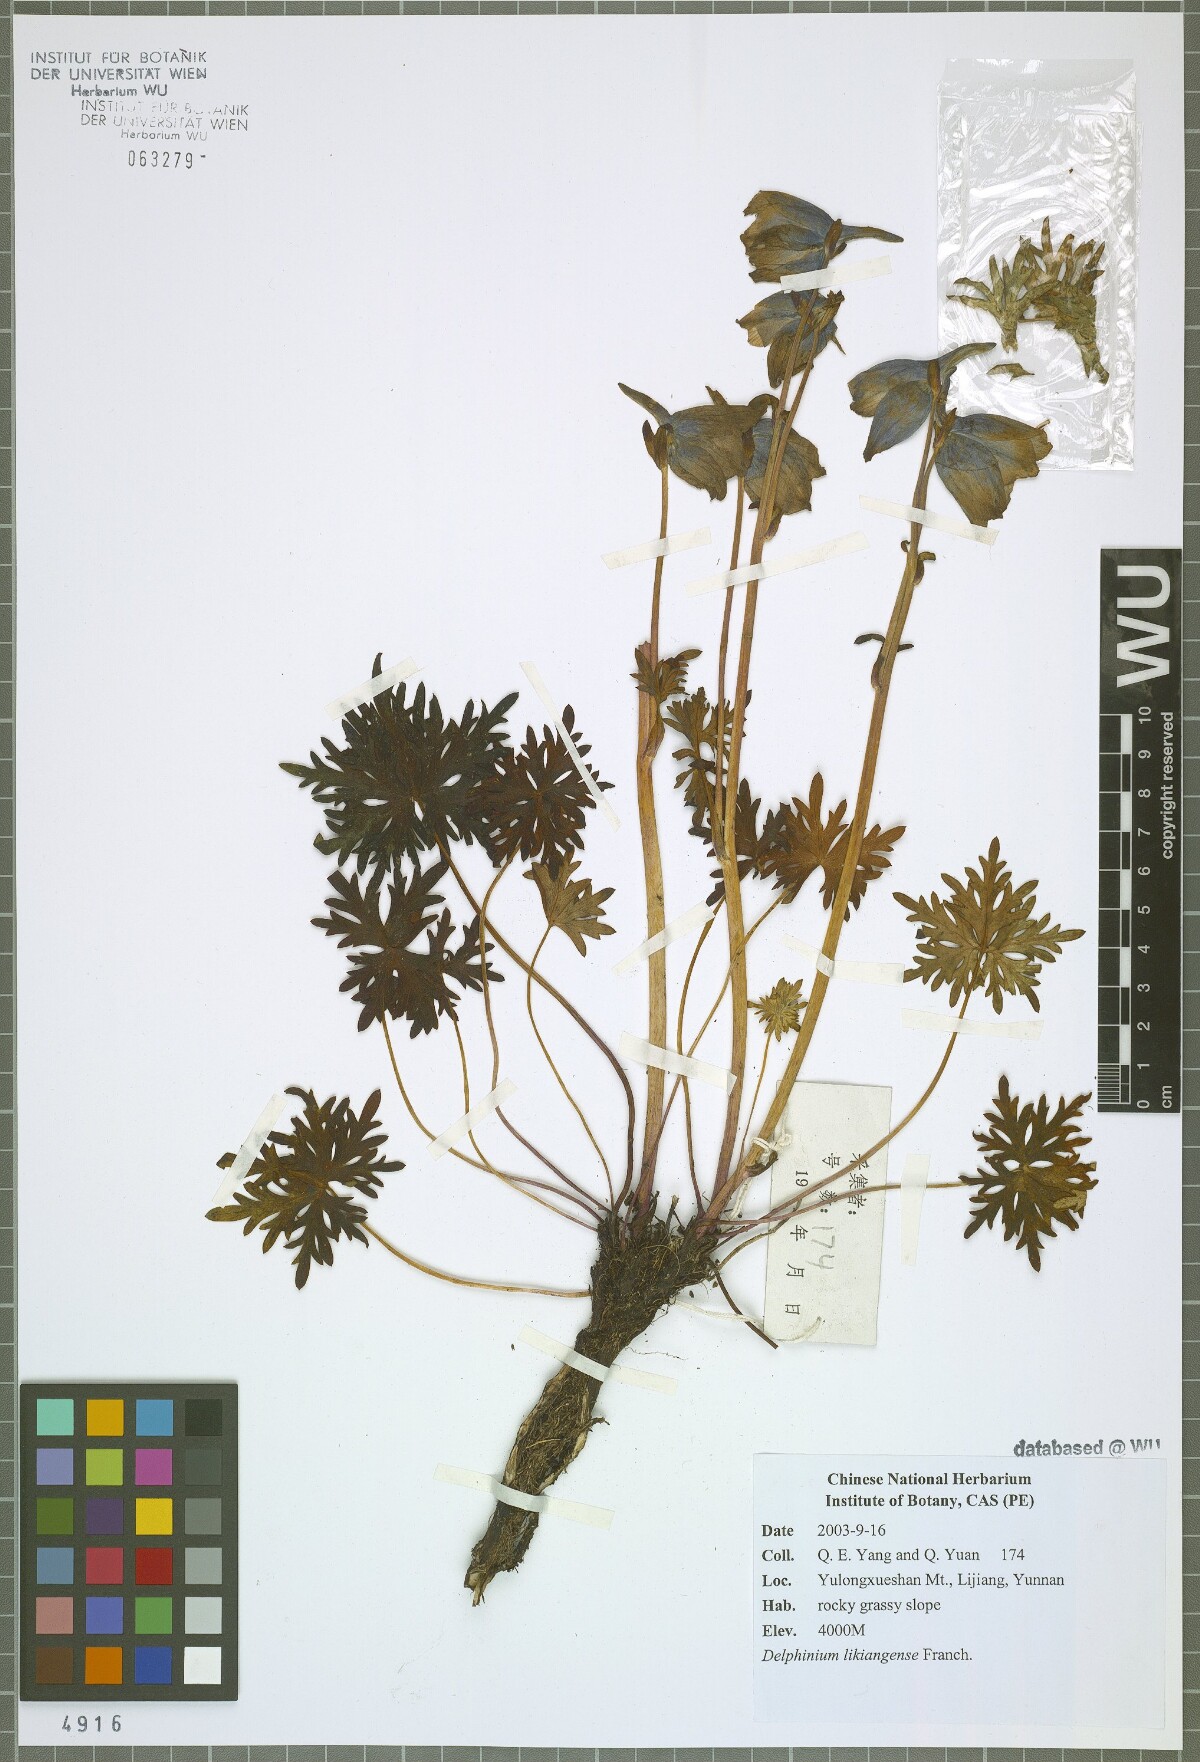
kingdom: Plantae
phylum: Tracheophyta
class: Magnoliopsida
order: Ranunculales
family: Ranunculaceae
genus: Delphinium
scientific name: Delphinium likiangense
